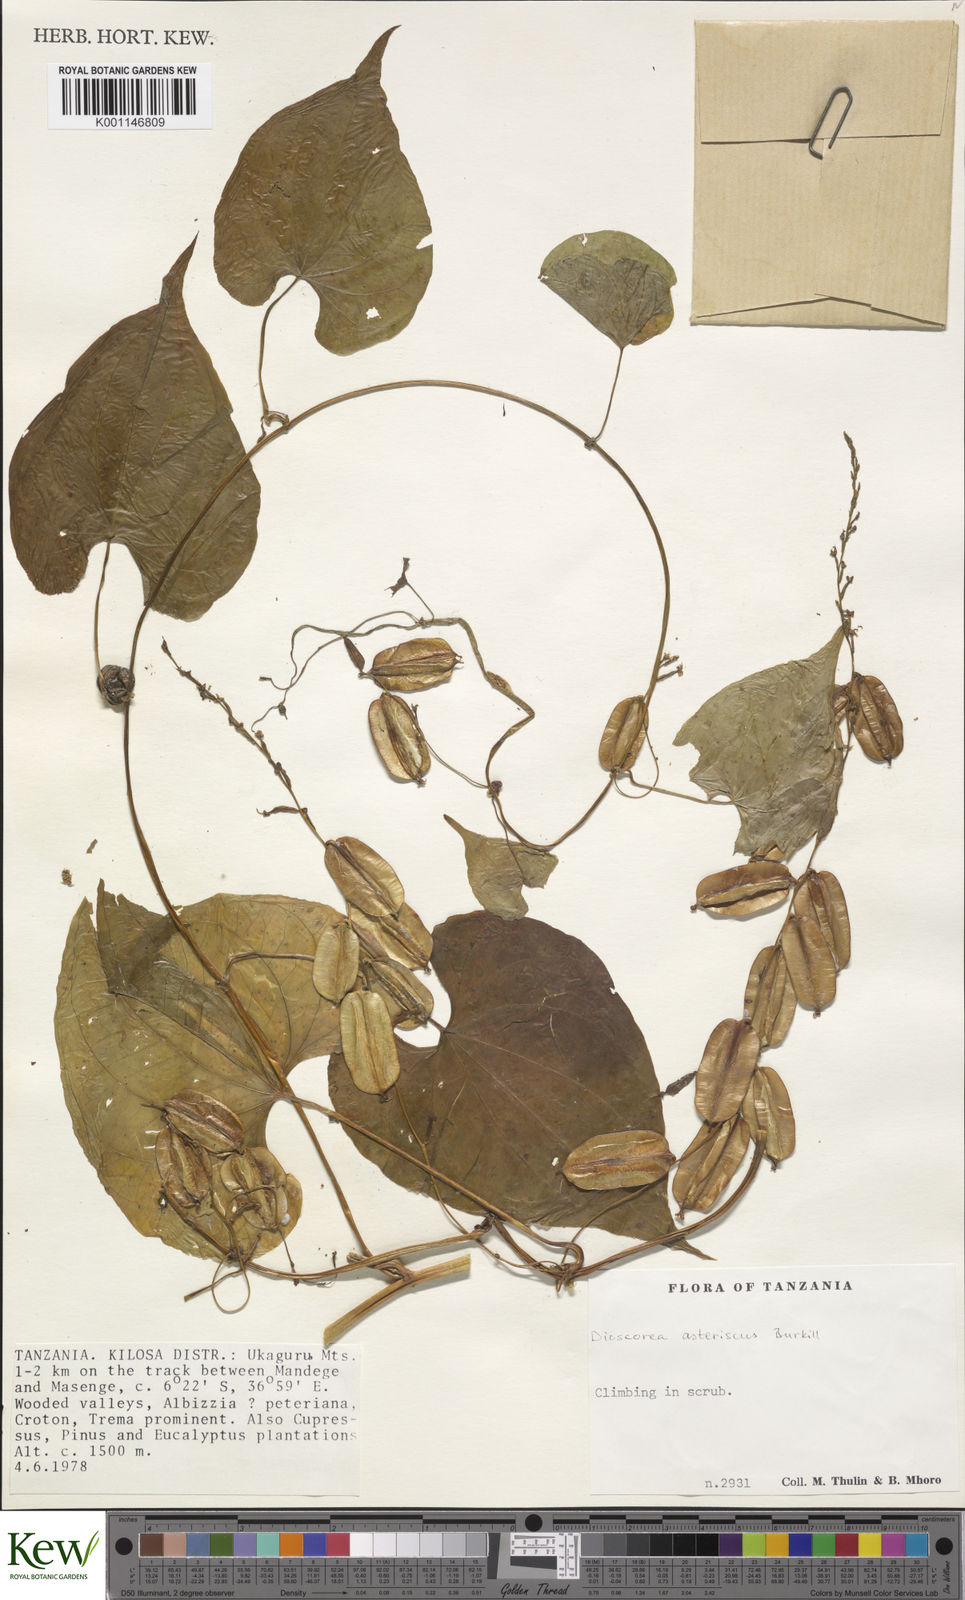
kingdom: Plantae
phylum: Tracheophyta
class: Liliopsida
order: Dioscoreales
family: Dioscoreaceae
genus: Dioscorea
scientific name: Dioscorea asteriscus
